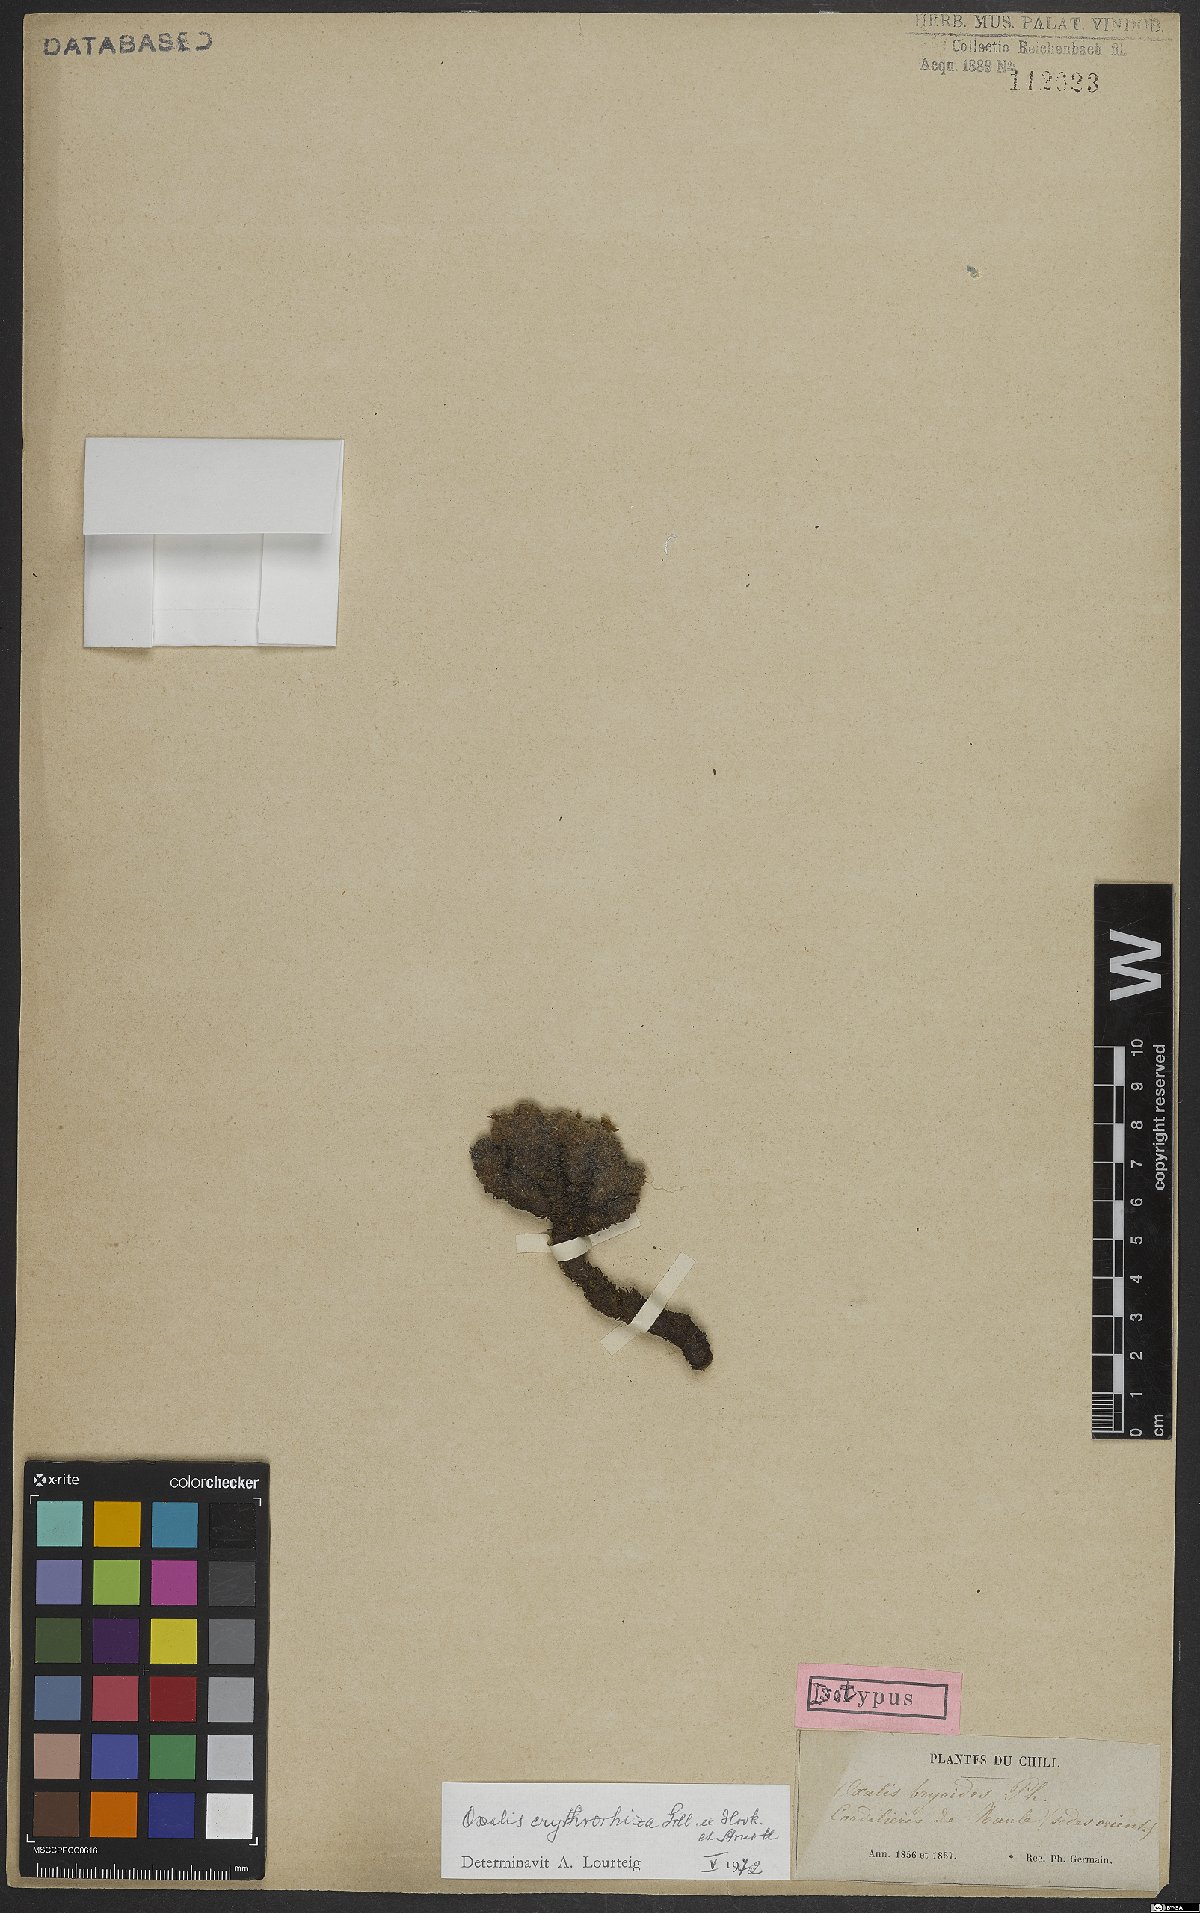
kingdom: Plantae
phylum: Tracheophyta
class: Magnoliopsida
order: Oxalidales
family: Oxalidaceae
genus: Oxalis
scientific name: Oxalis erythrorhiza
